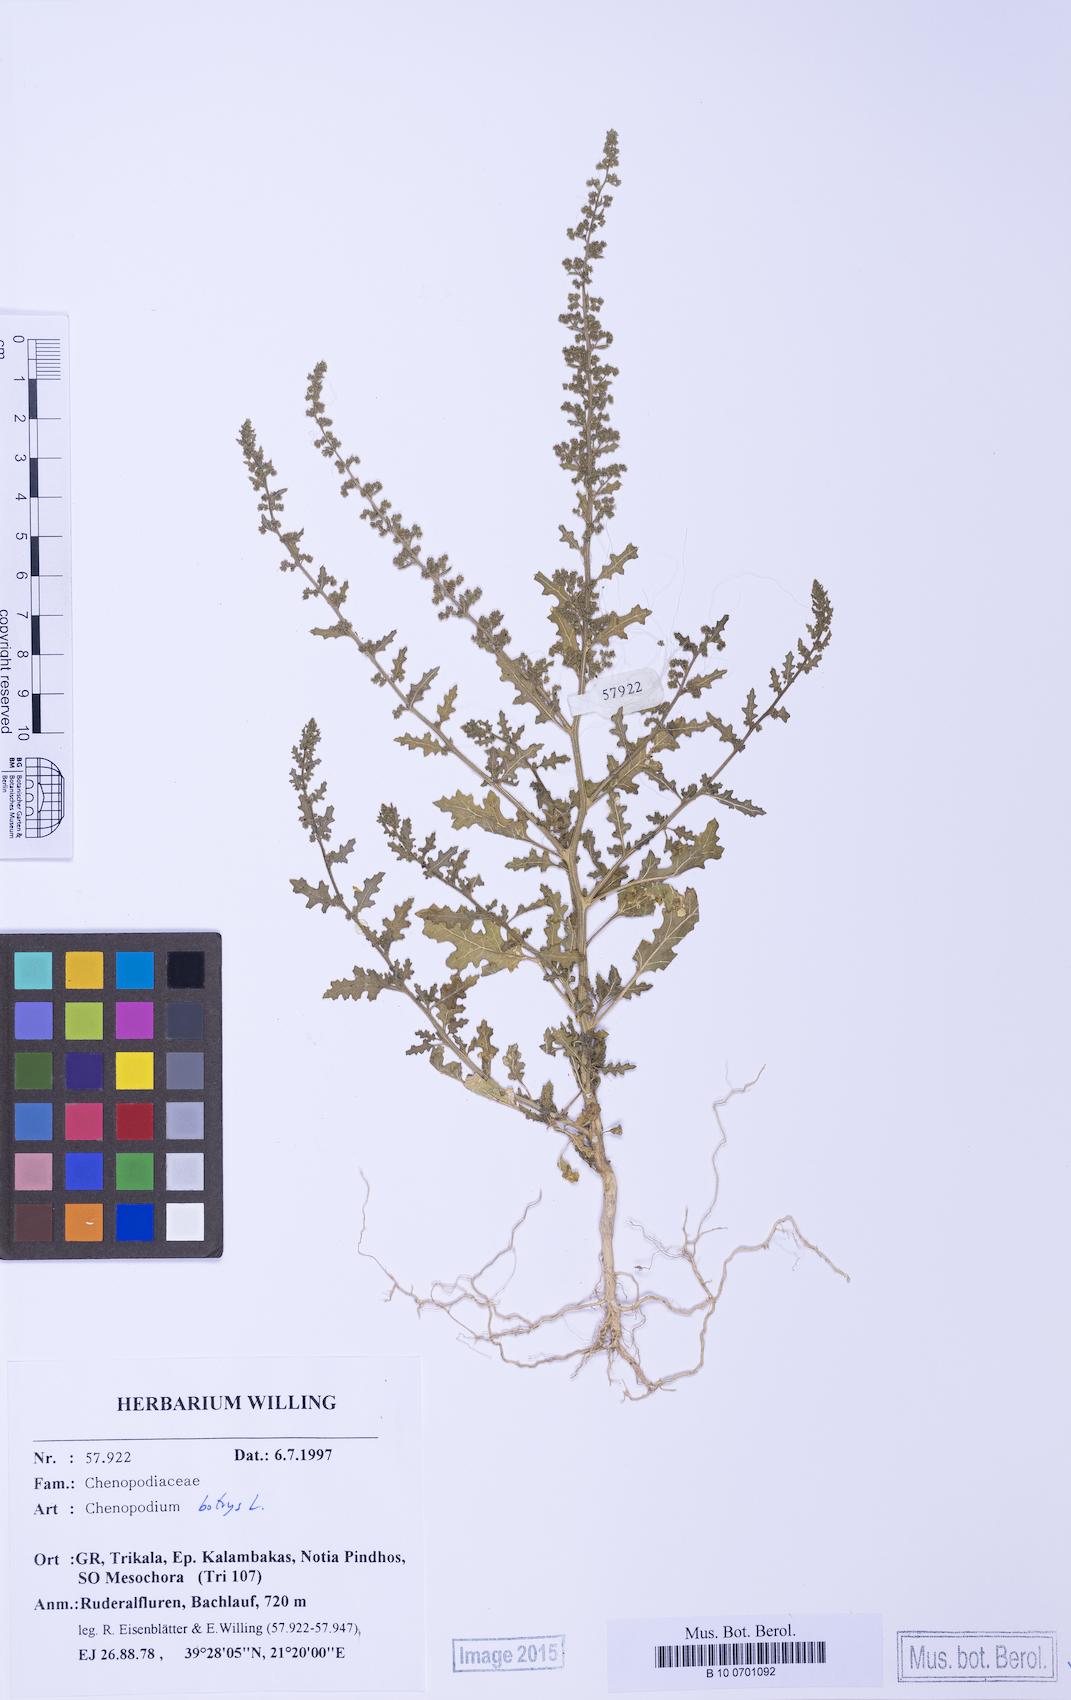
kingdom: Plantae
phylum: Tracheophyta
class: Magnoliopsida
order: Caryophyllales
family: Amaranthaceae
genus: Dysphania
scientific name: Dysphania botrys
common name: Feather-geranium
